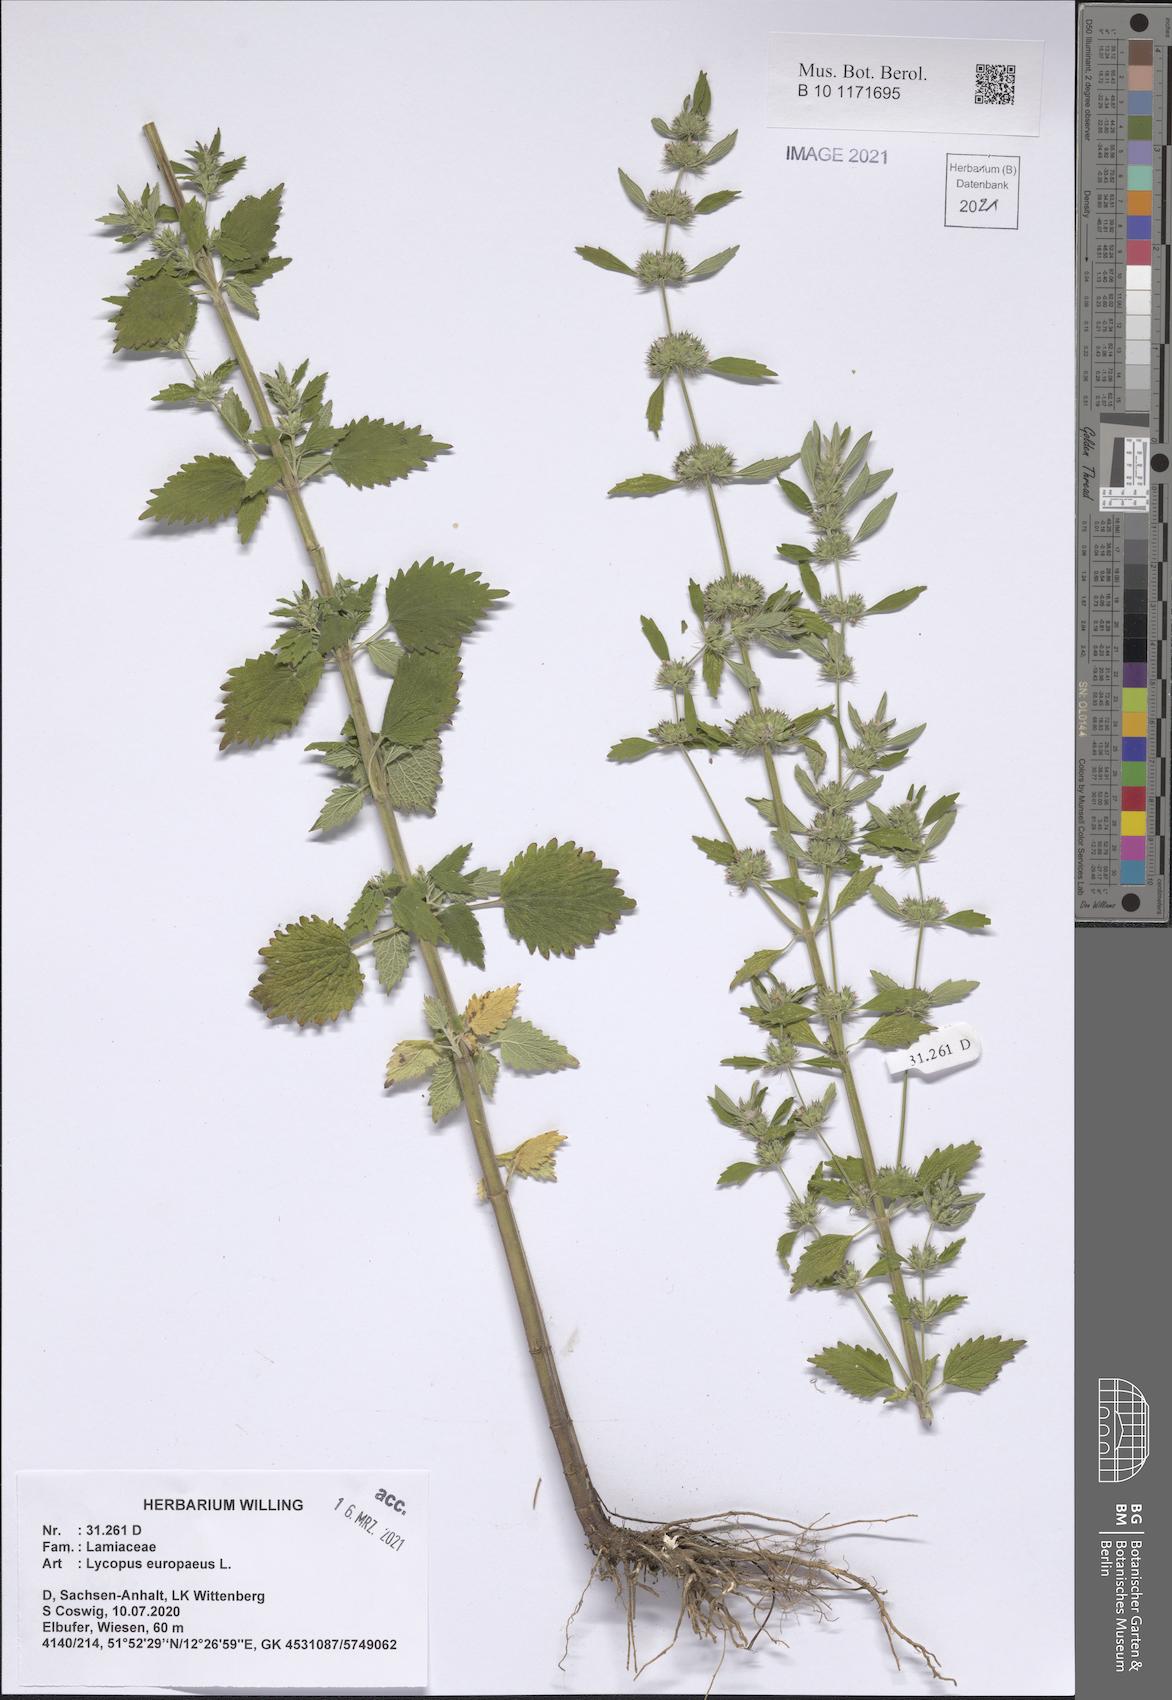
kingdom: Plantae
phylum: Tracheophyta
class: Magnoliopsida
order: Lamiales
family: Lamiaceae
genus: Lycopus
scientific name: Lycopus europaeus
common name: European bugleweed
